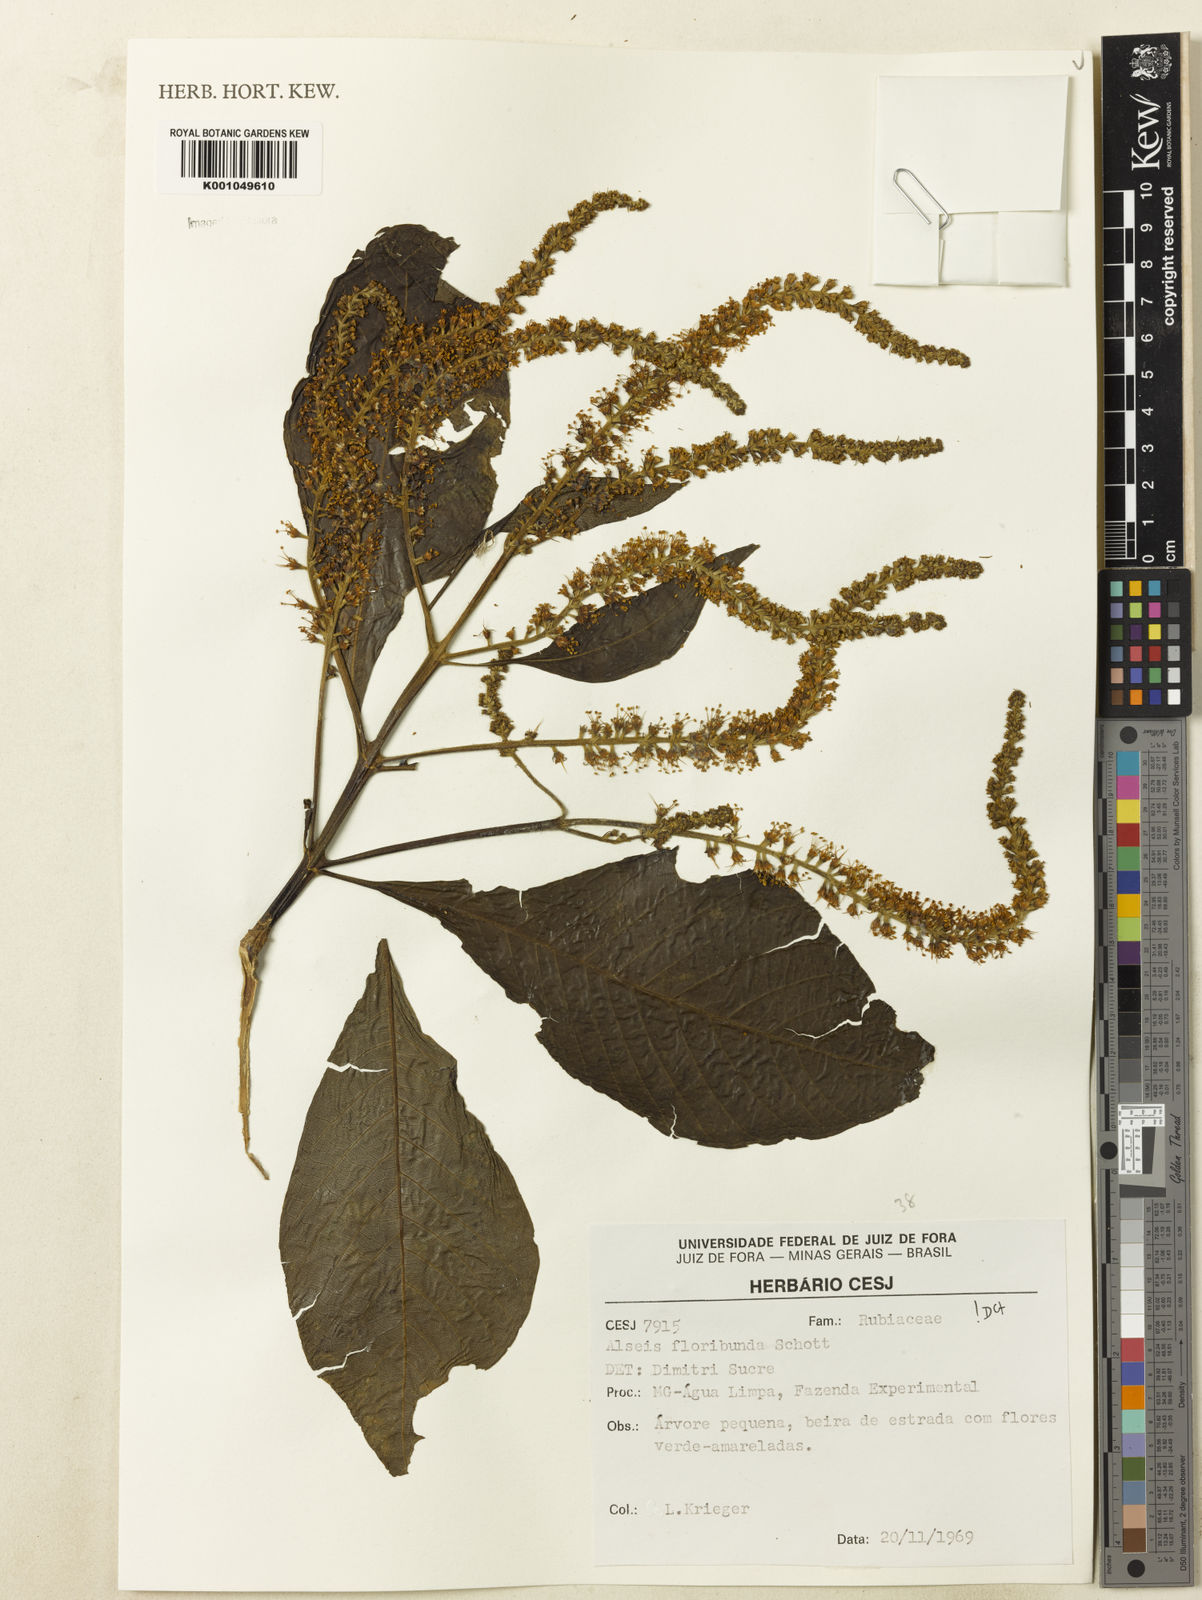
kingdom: Plantae
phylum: Tracheophyta
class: Magnoliopsida
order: Gentianales
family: Rubiaceae
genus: Alseis
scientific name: Alseis floribunda
